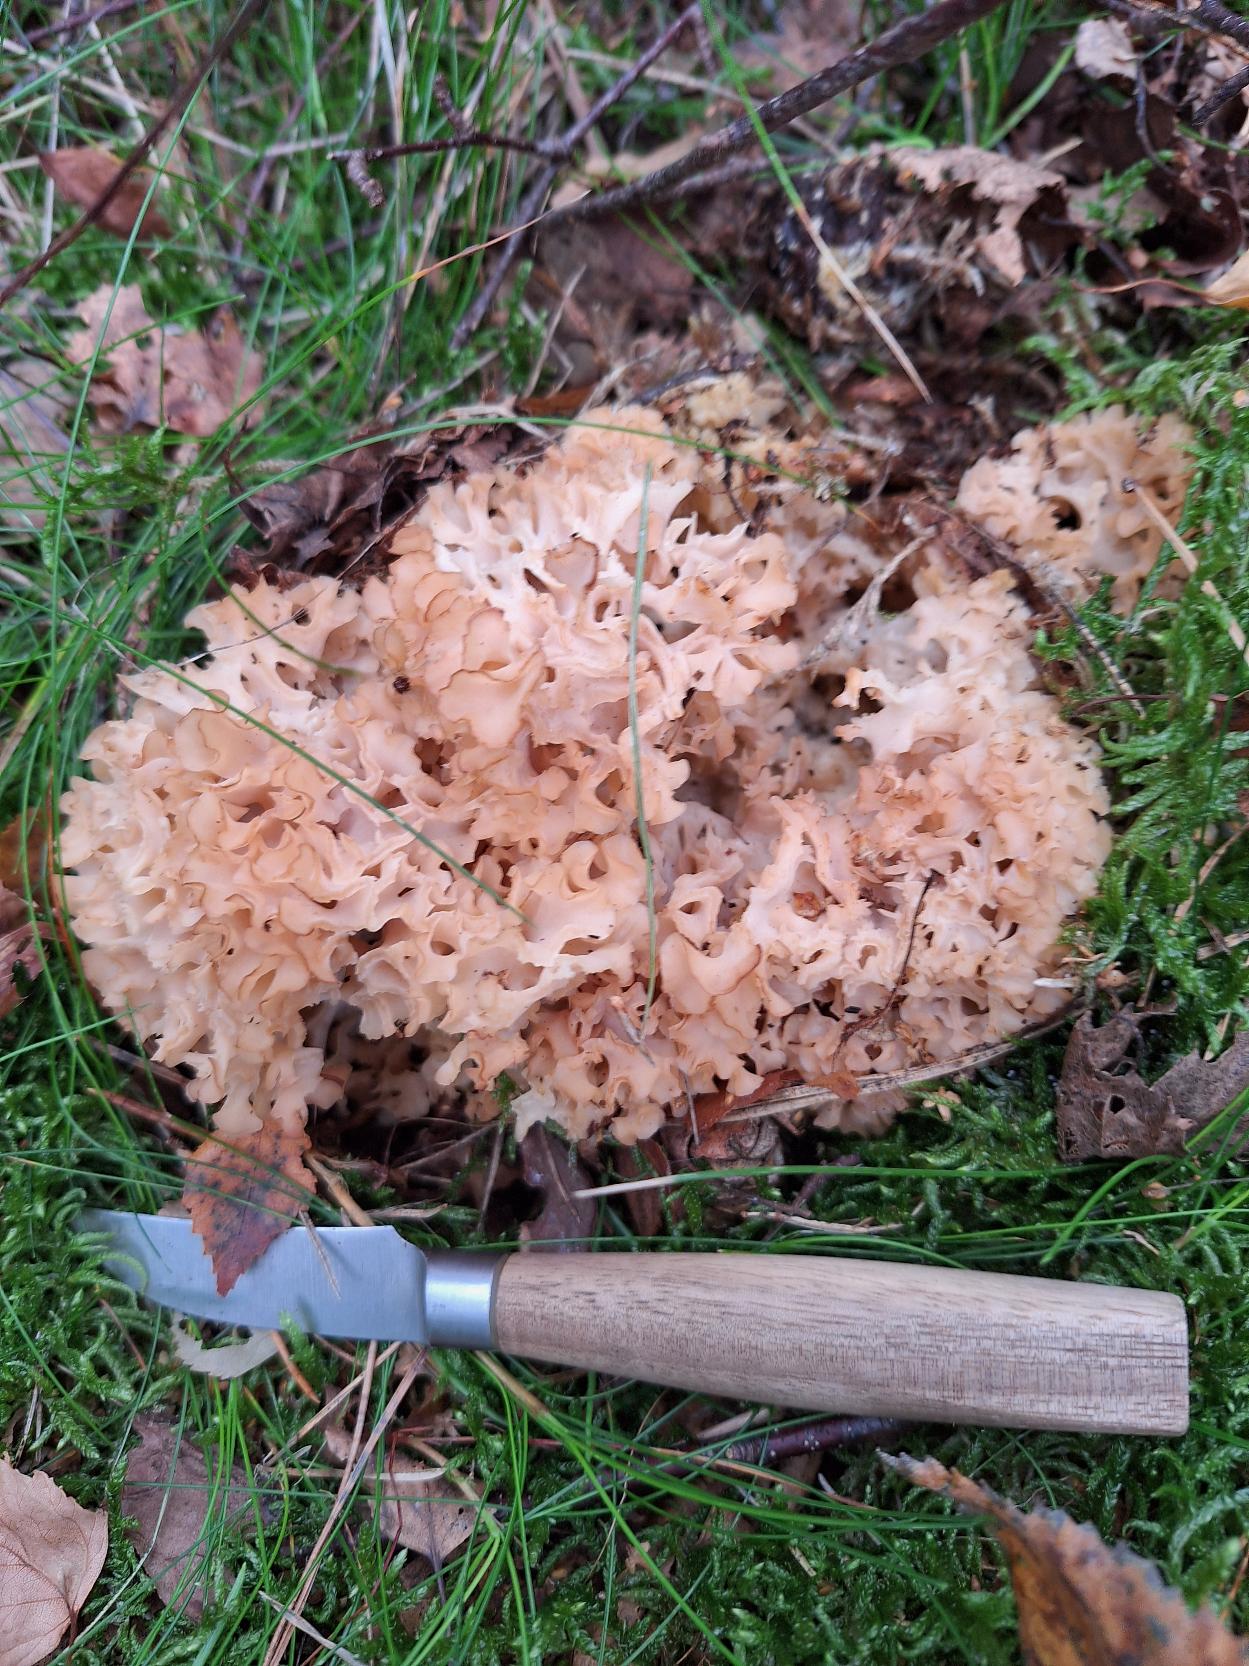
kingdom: Fungi
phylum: Basidiomycota
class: Agaricomycetes
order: Polyporales
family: Sparassidaceae
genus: Sparassis
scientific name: Sparassis crispa
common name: Kruset blomkålssvamp
